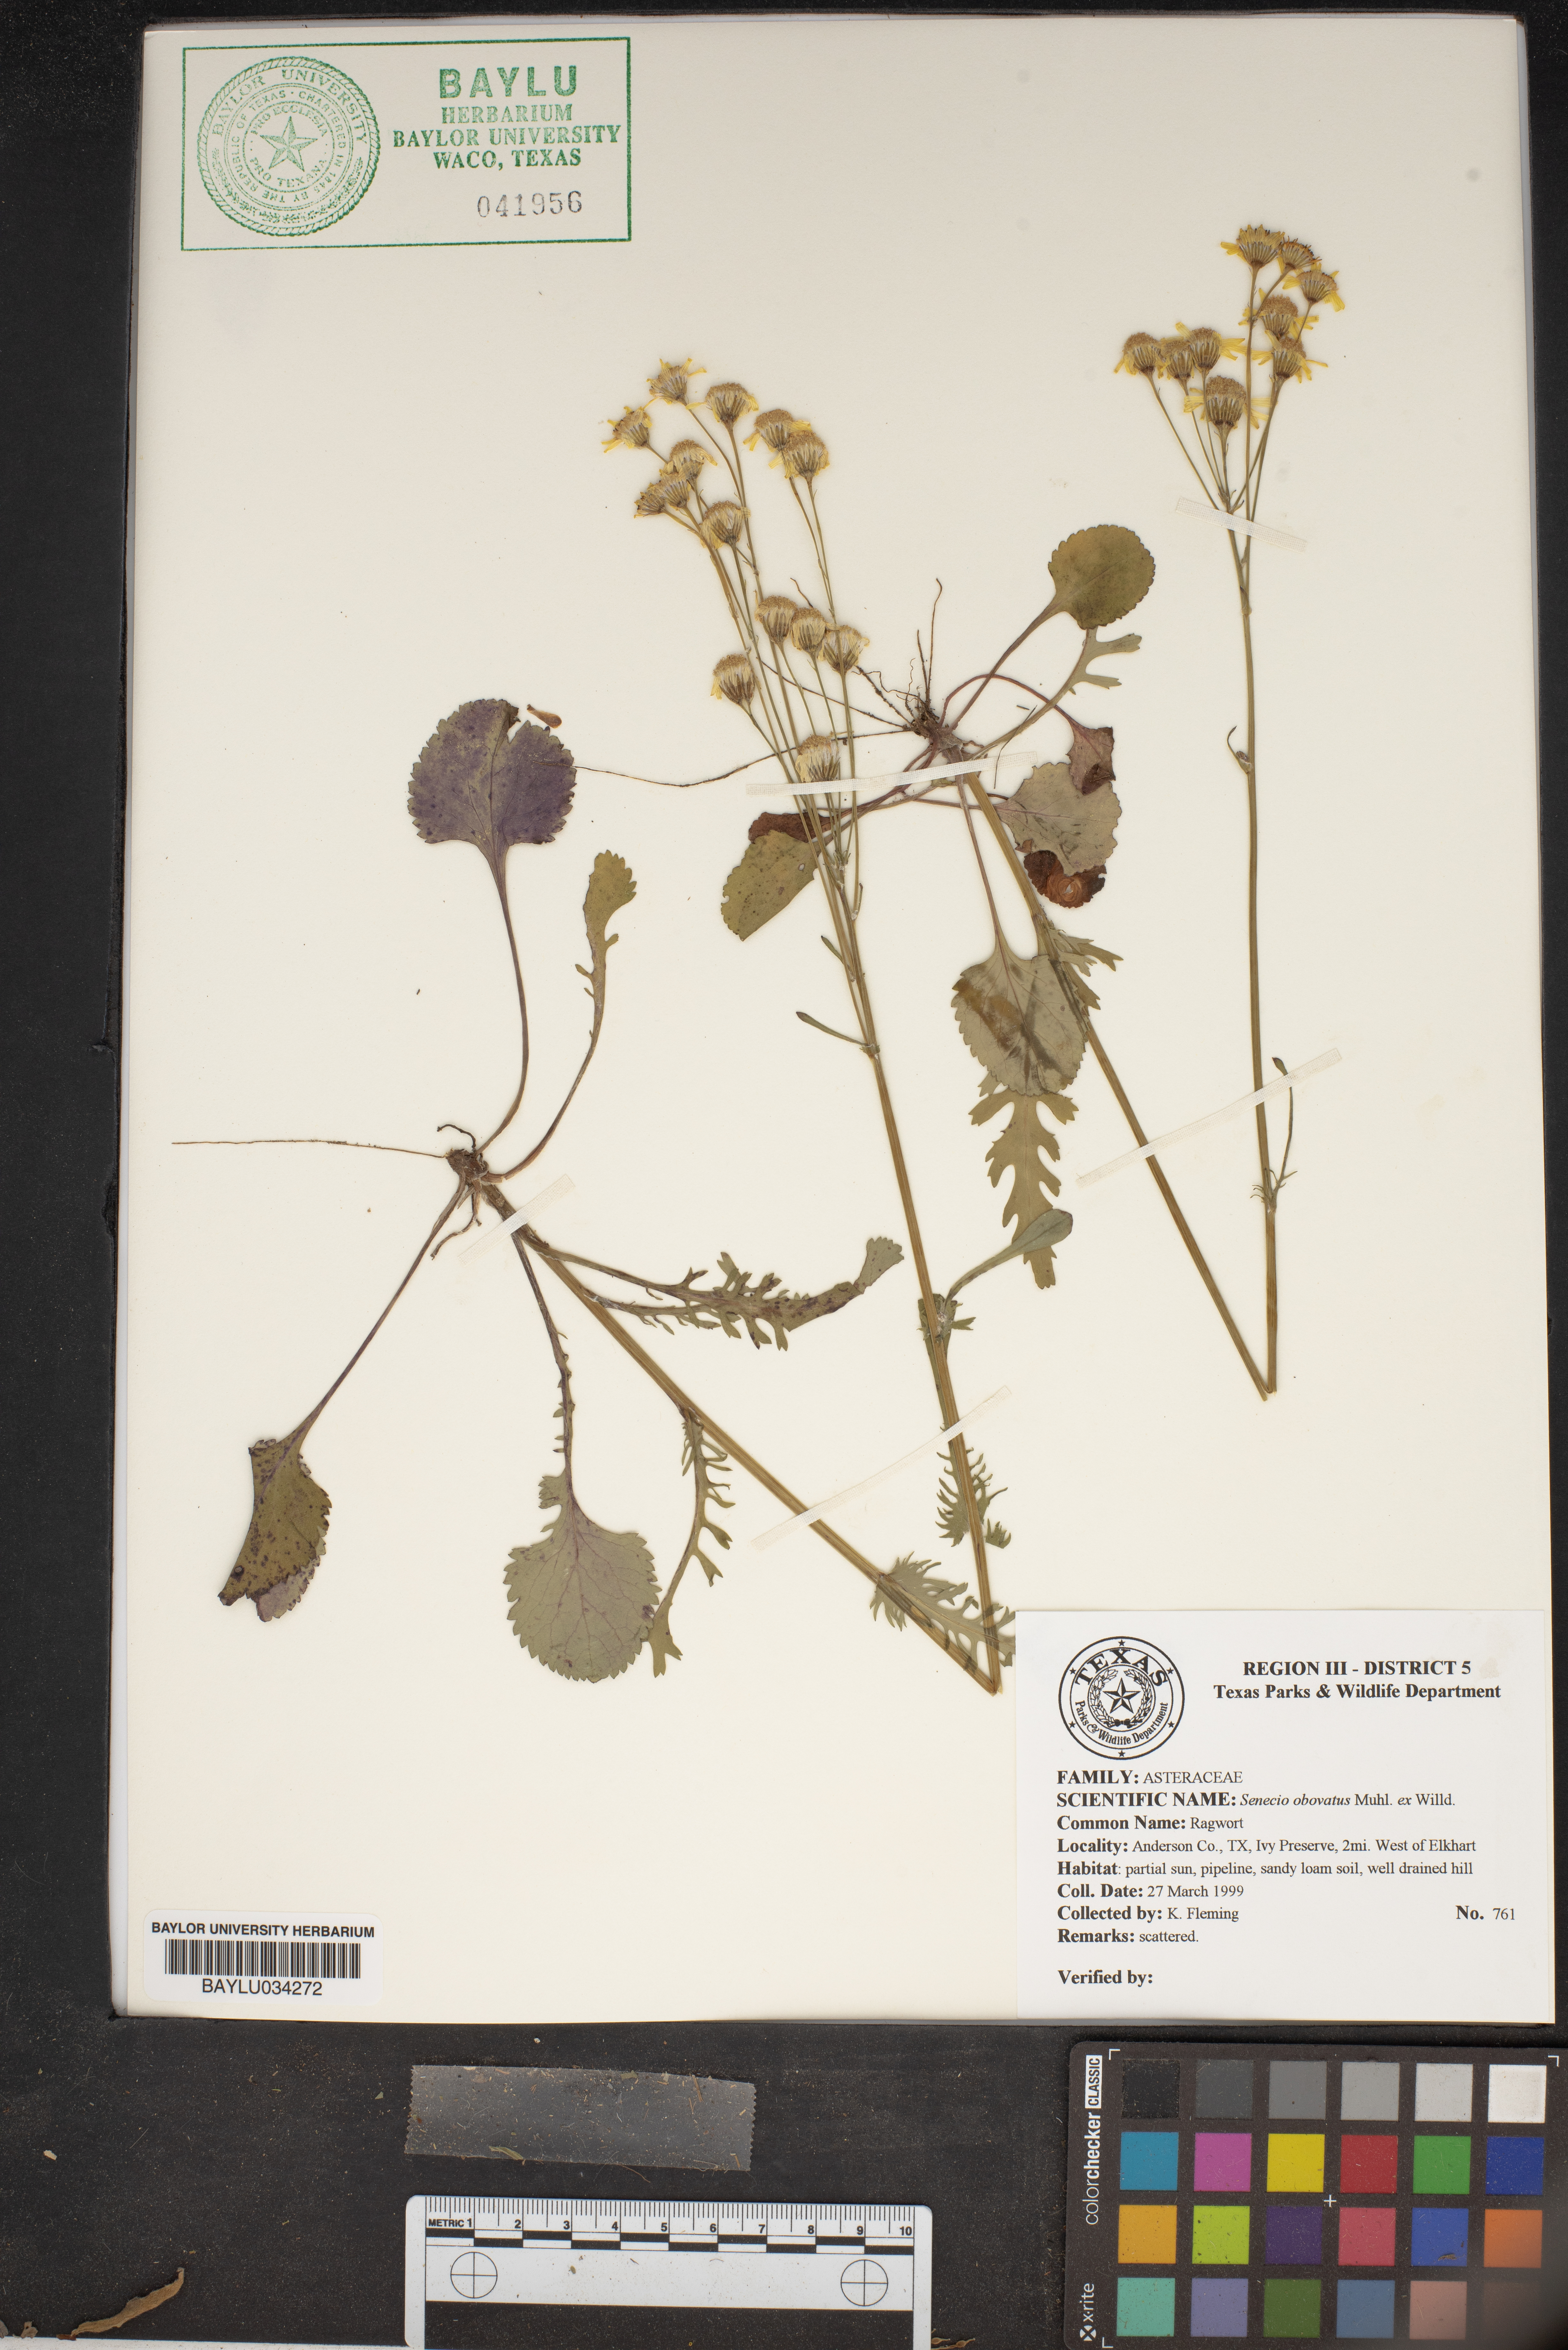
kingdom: Plantae
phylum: Tracheophyta
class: Magnoliopsida
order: Asterales
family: Asteraceae
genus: Senecio
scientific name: Senecio provincialis
